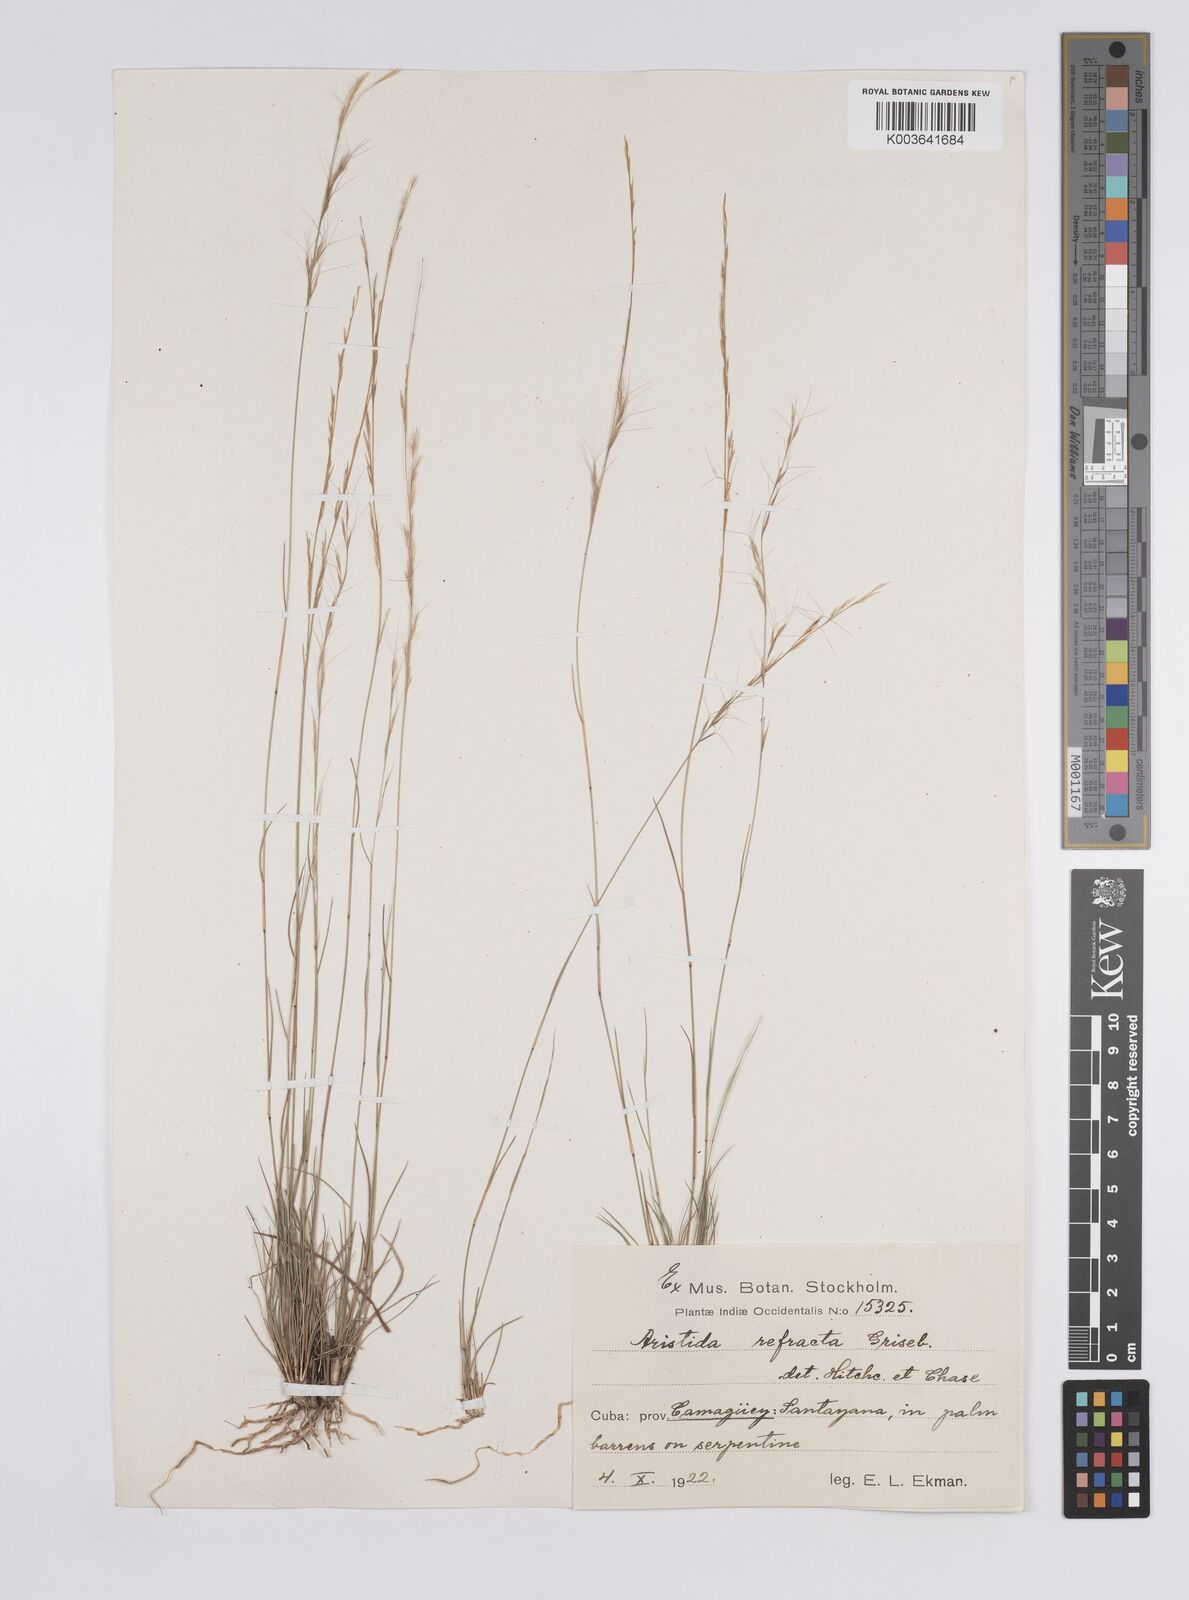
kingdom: Plantae
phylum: Tracheophyta
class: Liliopsida
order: Poales
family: Poaceae
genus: Aristida
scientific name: Aristida refracta
